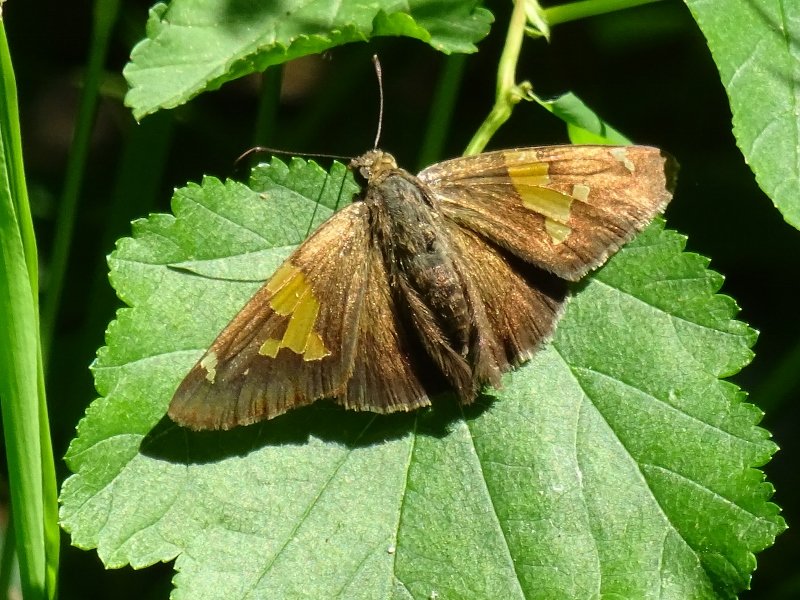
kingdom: Animalia
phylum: Arthropoda
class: Insecta
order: Lepidoptera
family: Hesperiidae
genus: Epargyreus
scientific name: Epargyreus clarus
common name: Silver-spotted Skipper
